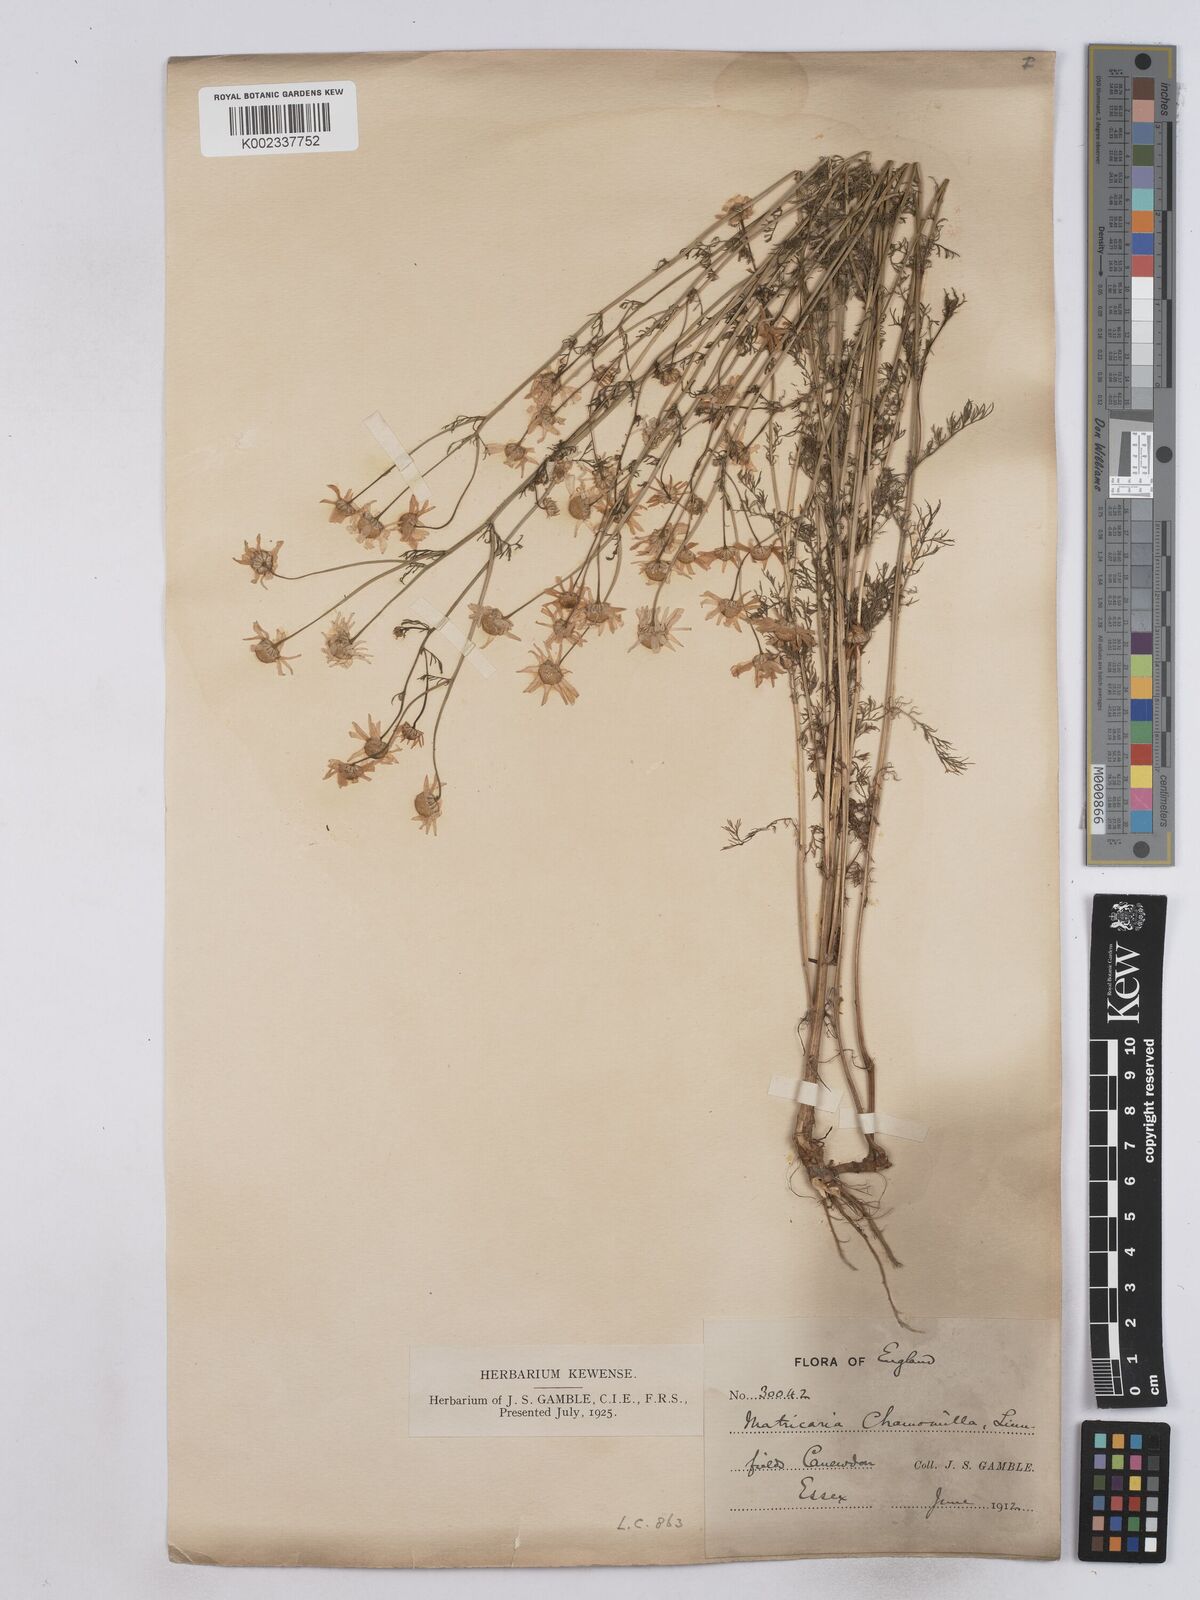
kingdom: Plantae
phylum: Tracheophyta
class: Magnoliopsida
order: Asterales
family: Asteraceae
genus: Matricaria
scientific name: Matricaria chamomilla
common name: Scented mayweed
